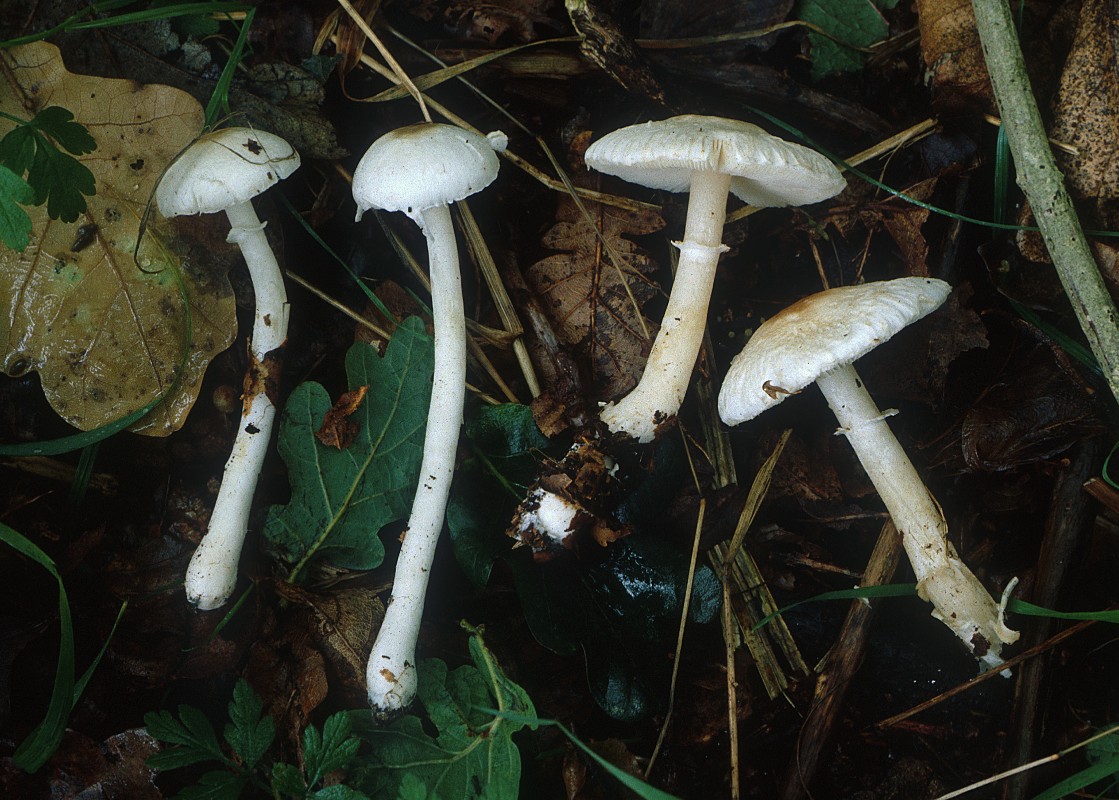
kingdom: Fungi
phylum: Basidiomycota
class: Agaricomycetes
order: Agaricales
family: Agaricaceae
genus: Leucoagaricus
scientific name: Leucoagaricus medioflavoides
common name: gulhvid silkehat
